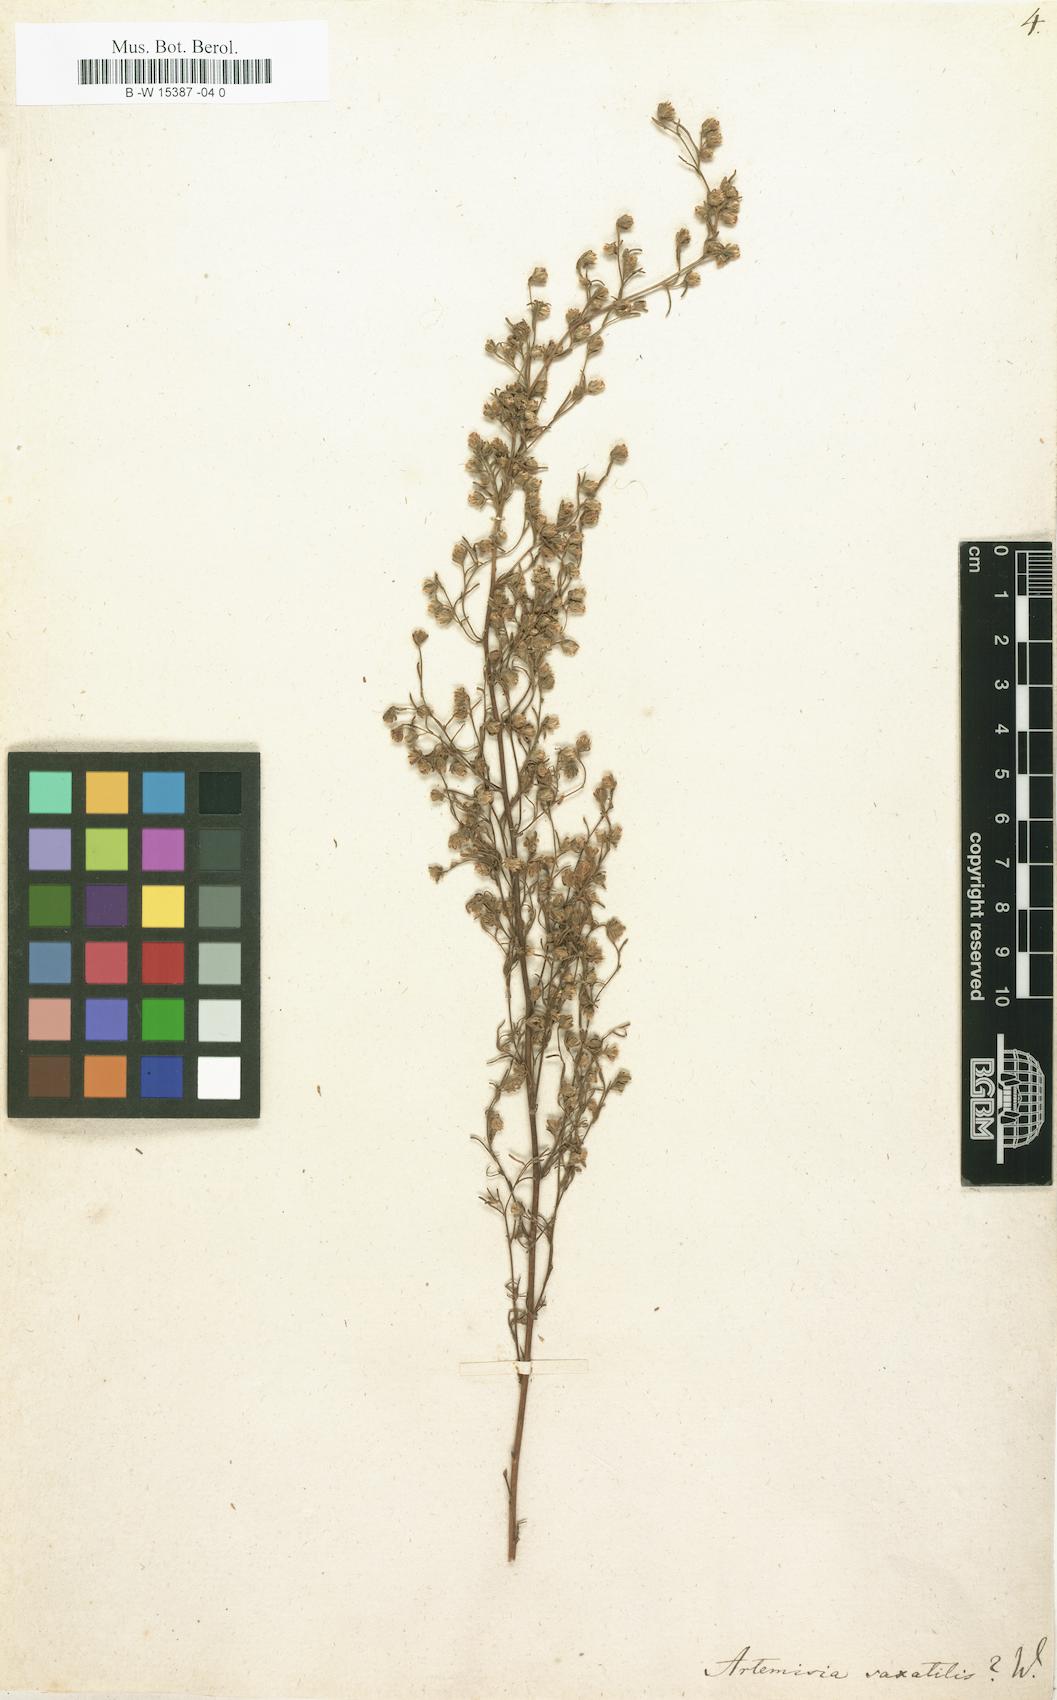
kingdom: Plantae
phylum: Tracheophyta
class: Magnoliopsida
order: Asterales
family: Asteraceae
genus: Artemisia
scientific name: Artemisia alba
